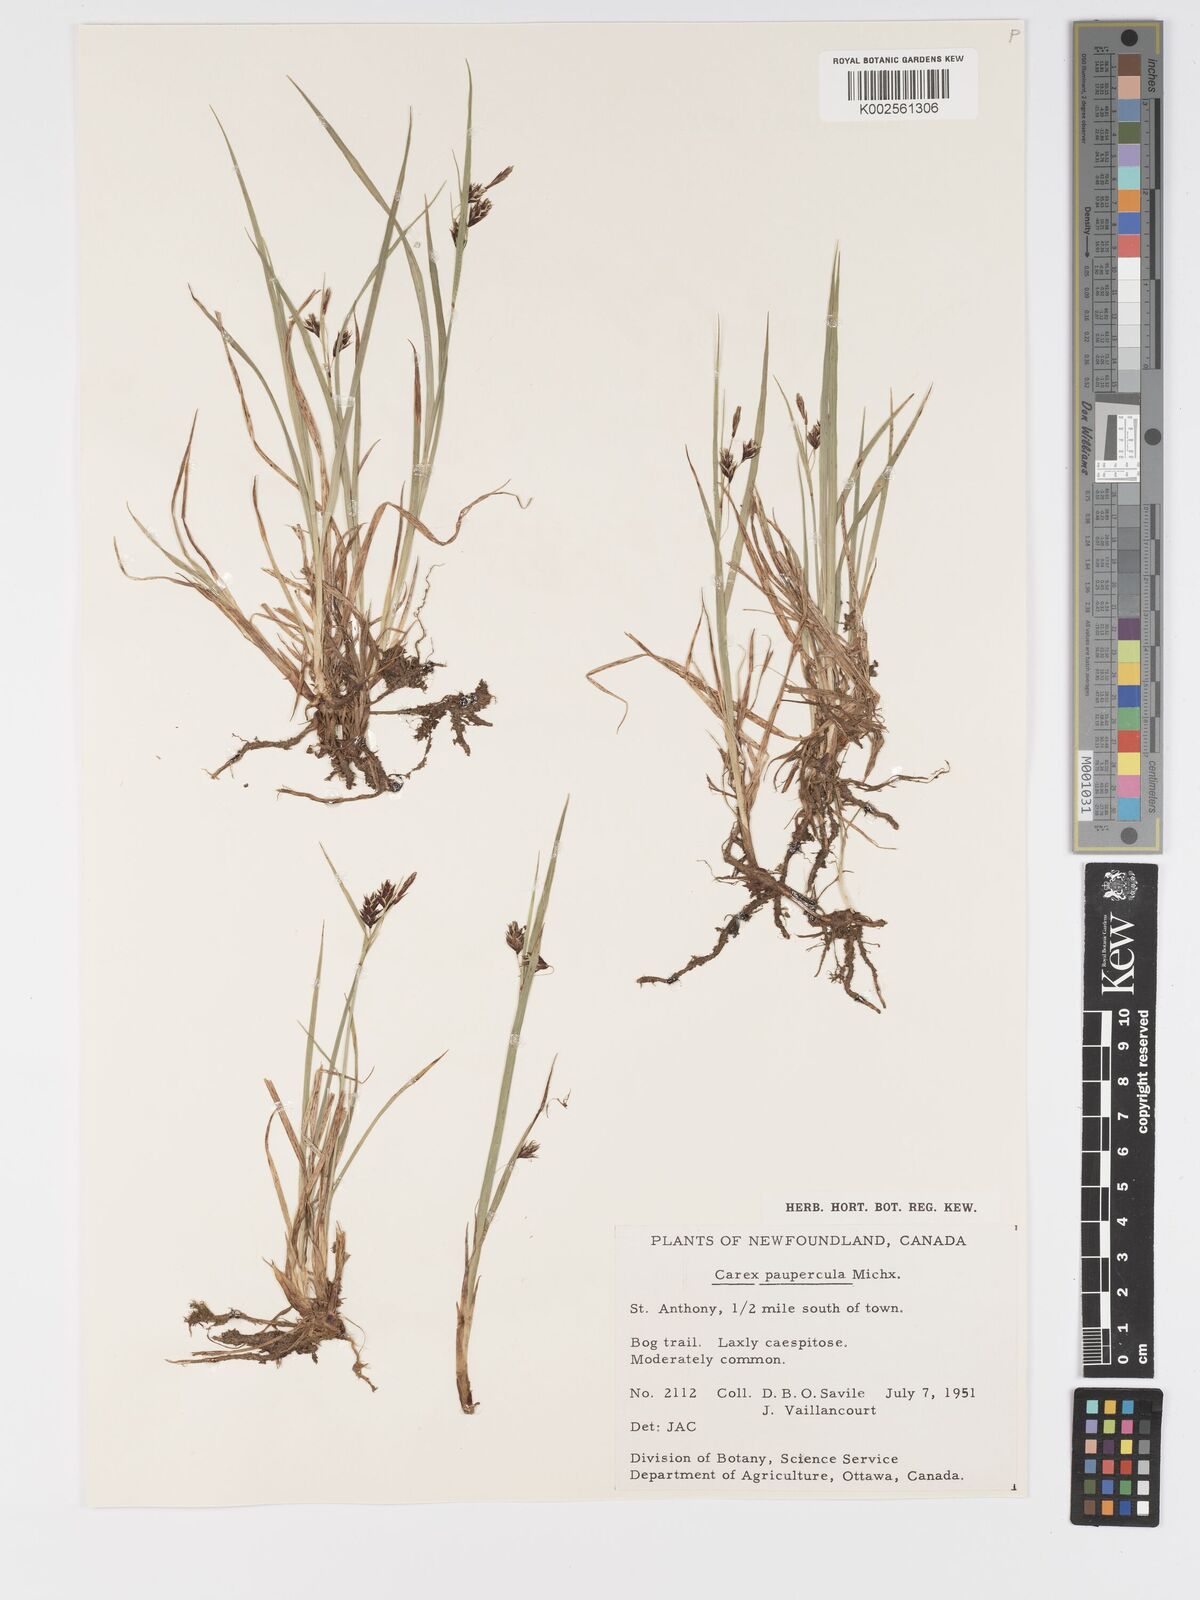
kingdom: Plantae
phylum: Tracheophyta
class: Liliopsida
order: Poales
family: Cyperaceae
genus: Carex
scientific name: Carex magellanica
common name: Bog sedge
